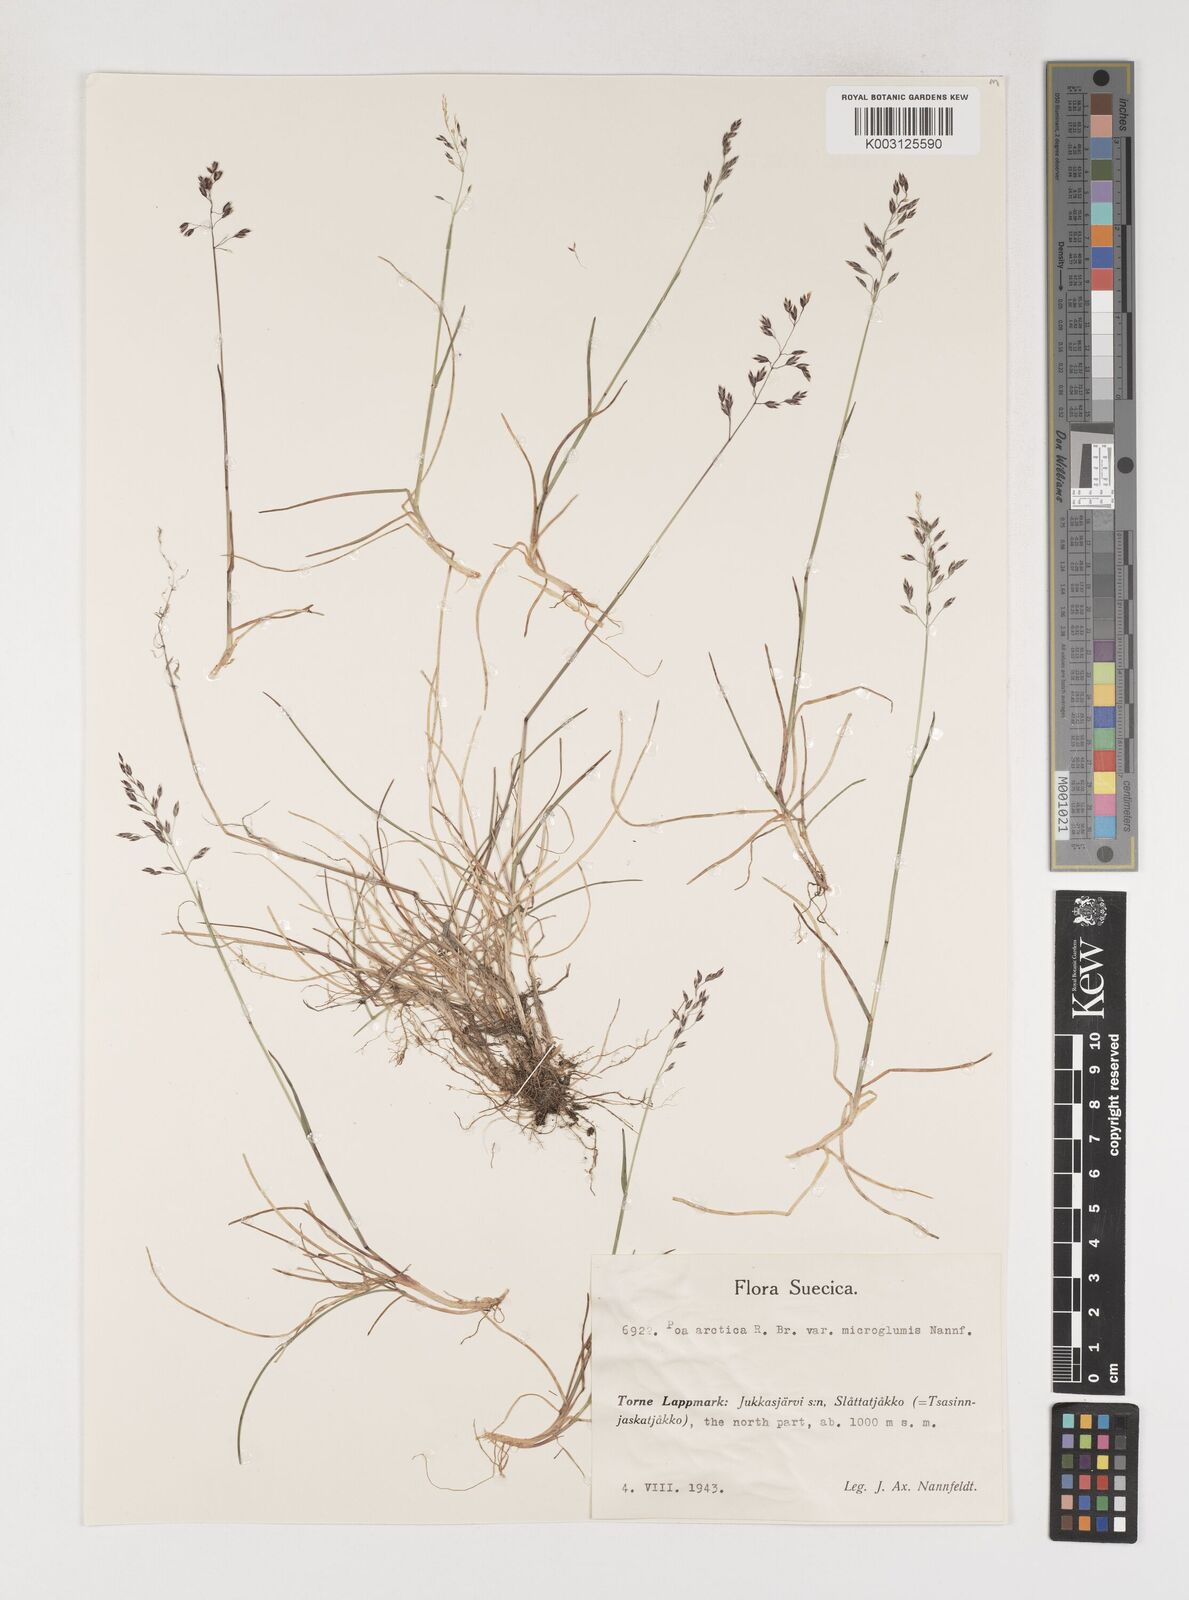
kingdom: Plantae
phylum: Tracheophyta
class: Liliopsida
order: Poales
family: Poaceae
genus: Poa
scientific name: Poa arctica
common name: Arctic bluegrass
